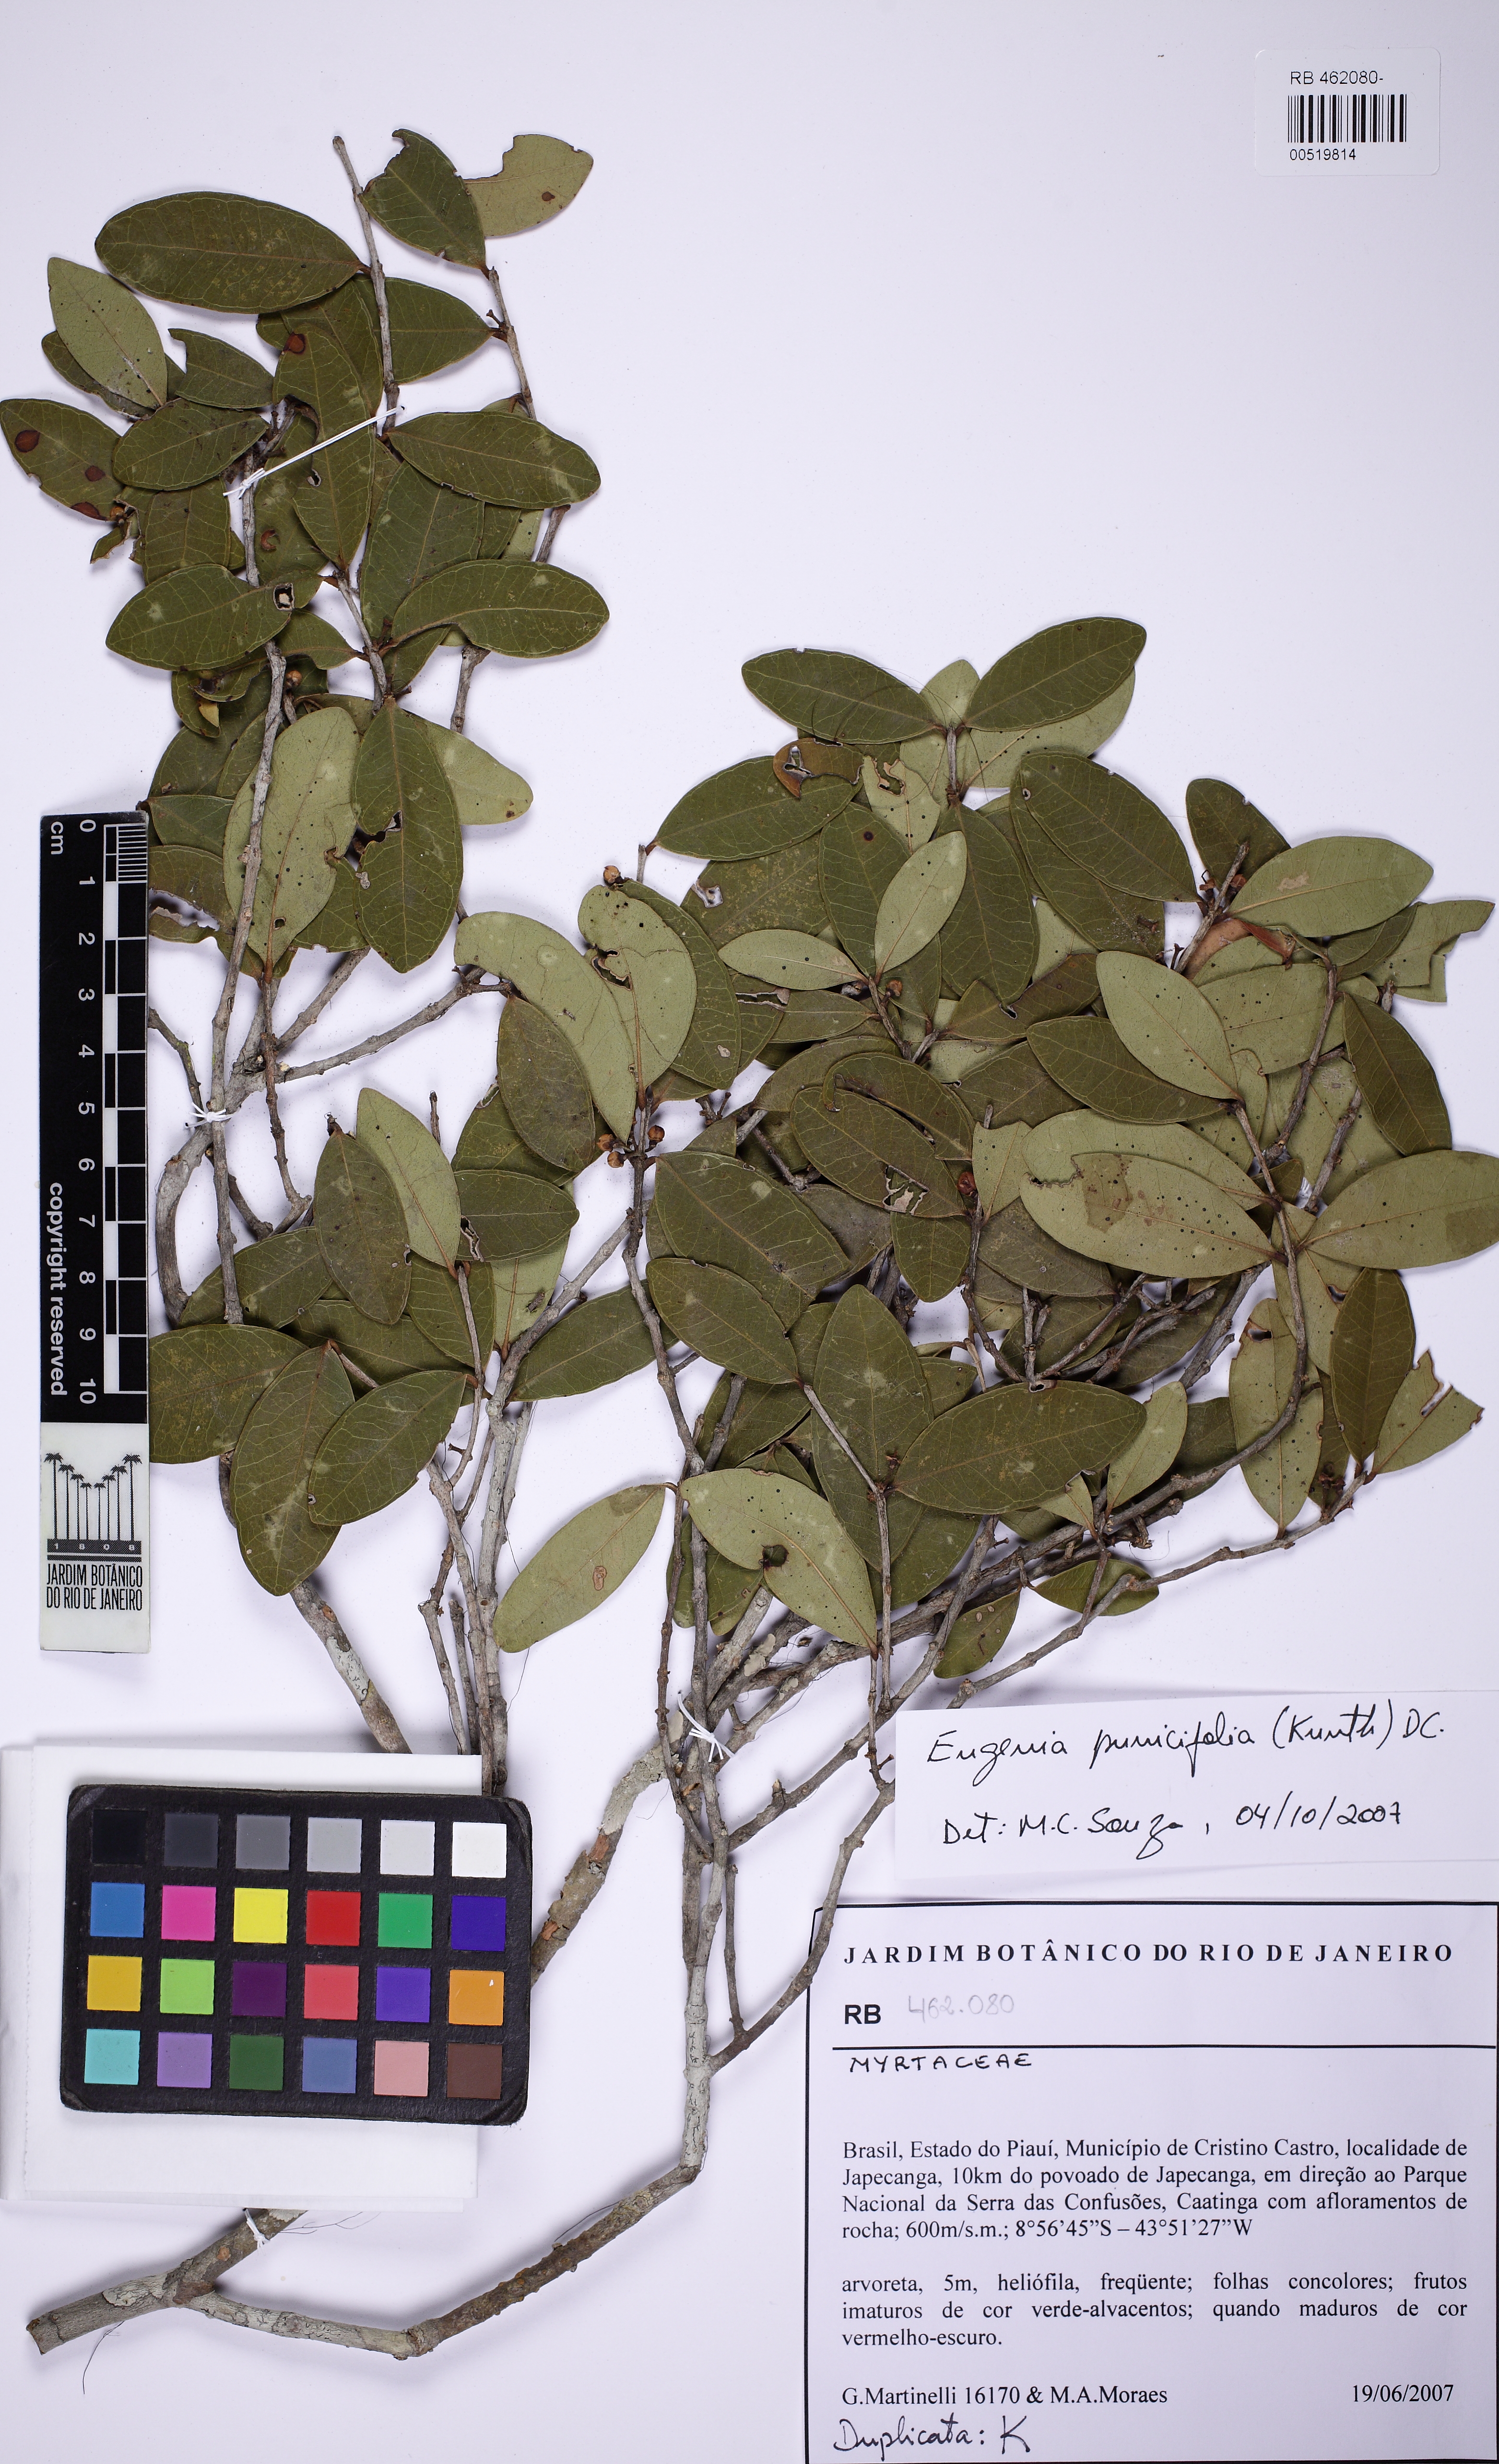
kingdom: Plantae
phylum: Tracheophyta
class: Magnoliopsida
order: Myrtales
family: Myrtaceae
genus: Eugenia
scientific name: Eugenia punicifolia
